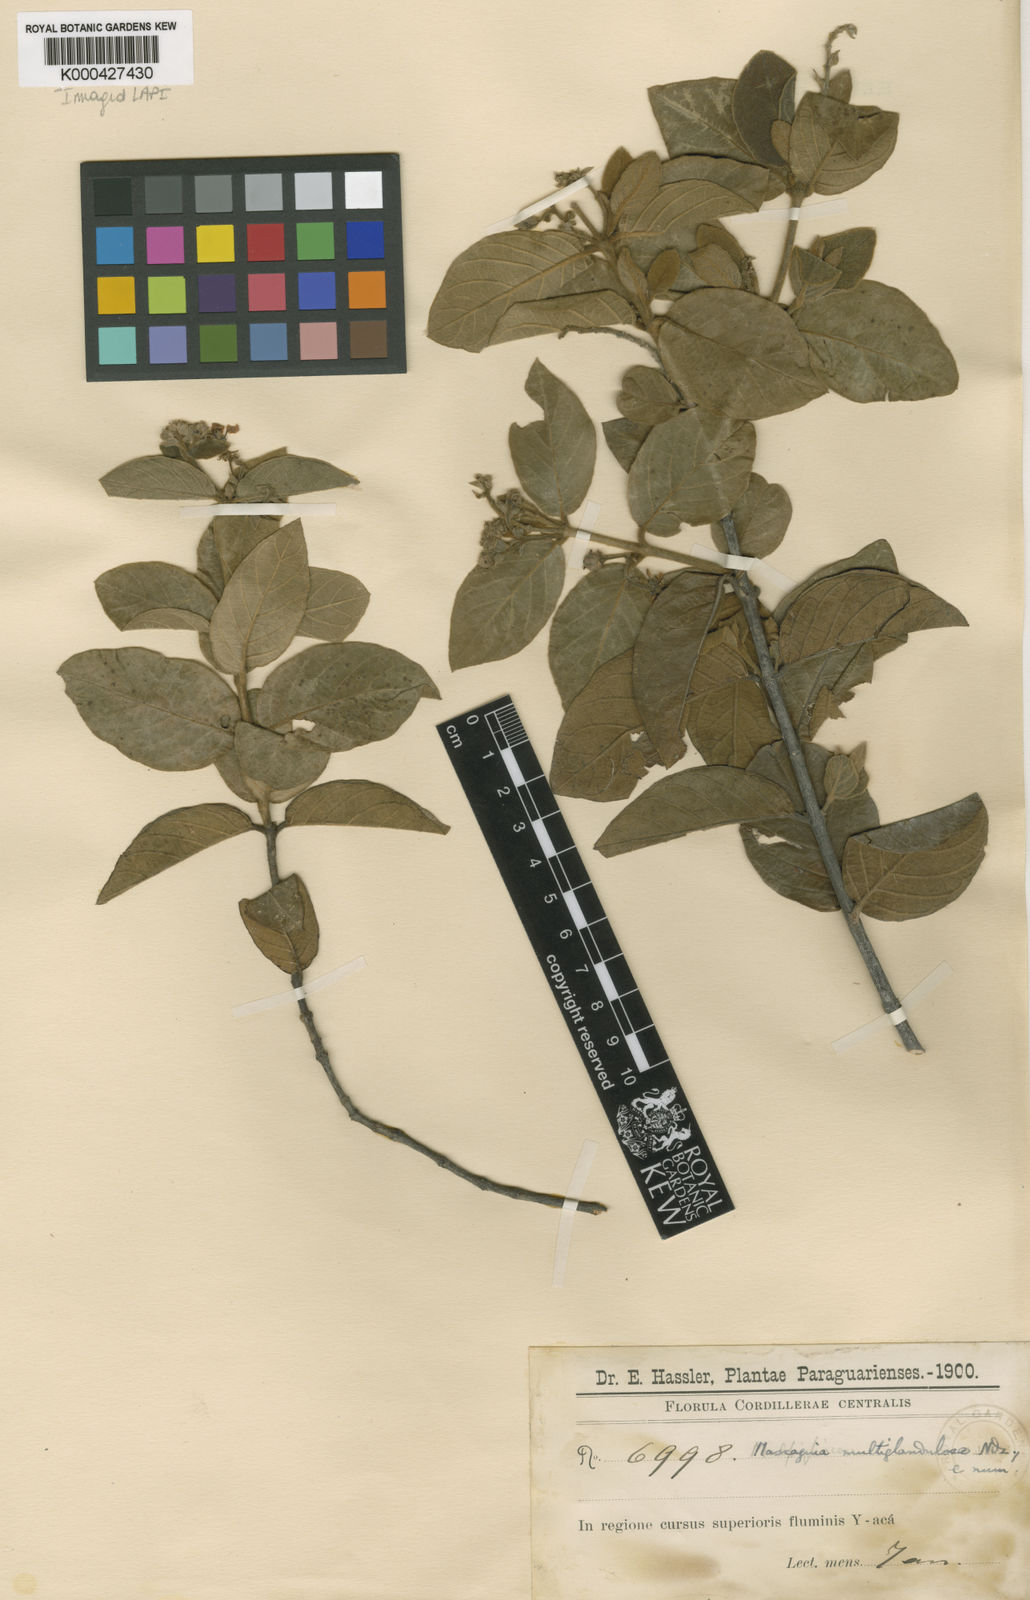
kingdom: Plantae
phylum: Tracheophyta
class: Magnoliopsida
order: Malpighiales
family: Malpighiaceae
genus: Christianella
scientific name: Christianella multiglandulosa
